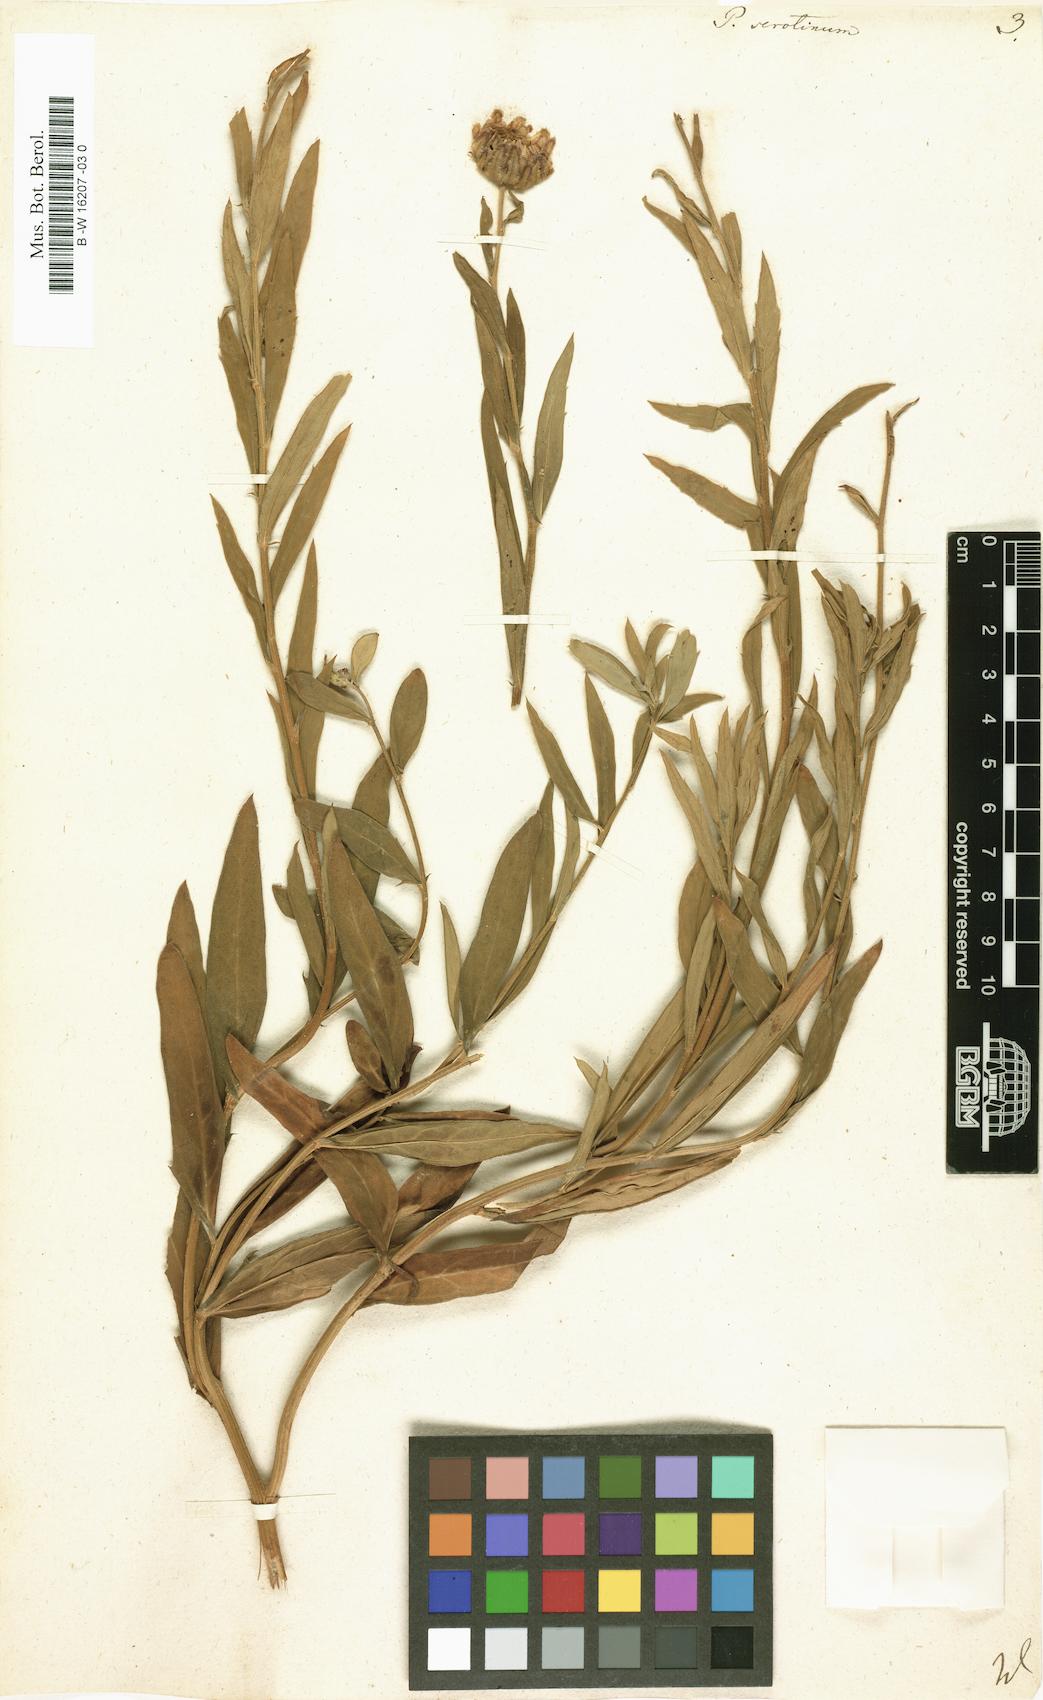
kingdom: Plantae
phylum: Tracheophyta
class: Magnoliopsida
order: Asterales
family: Asteraceae
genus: Tanacetum
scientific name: Tanacetum Pyrethrum serotinum
